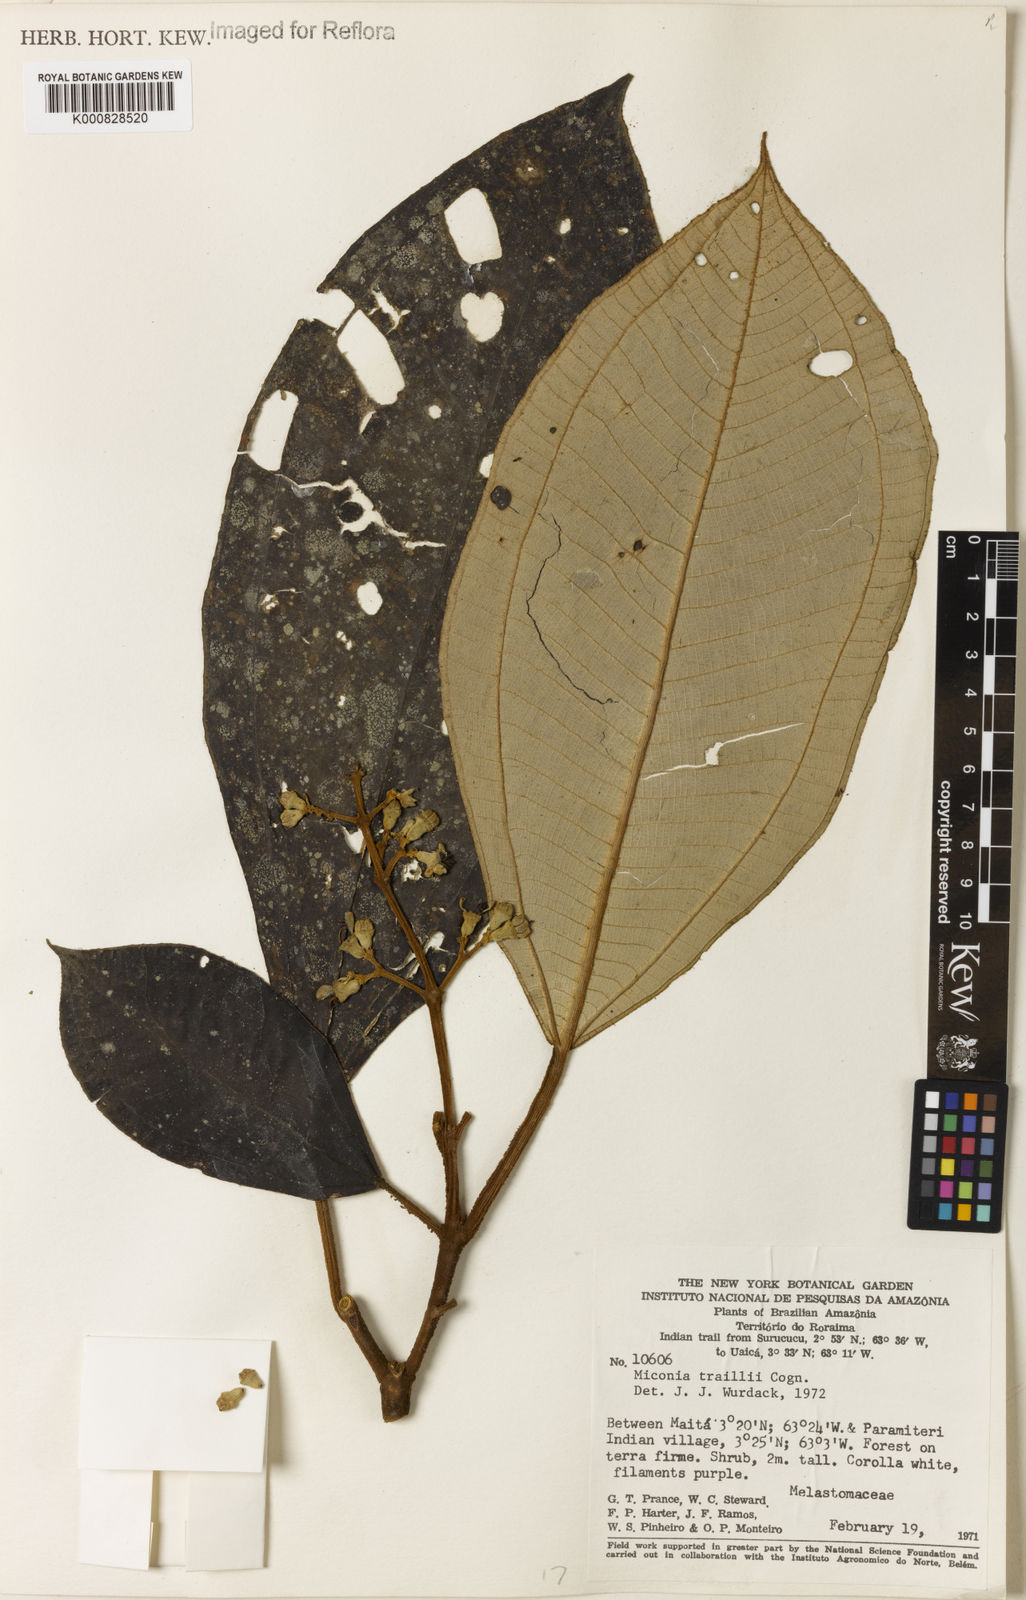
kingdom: Plantae
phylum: Tracheophyta
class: Magnoliopsida
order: Myrtales
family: Melastomataceae
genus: Miconia
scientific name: Miconia traillii
